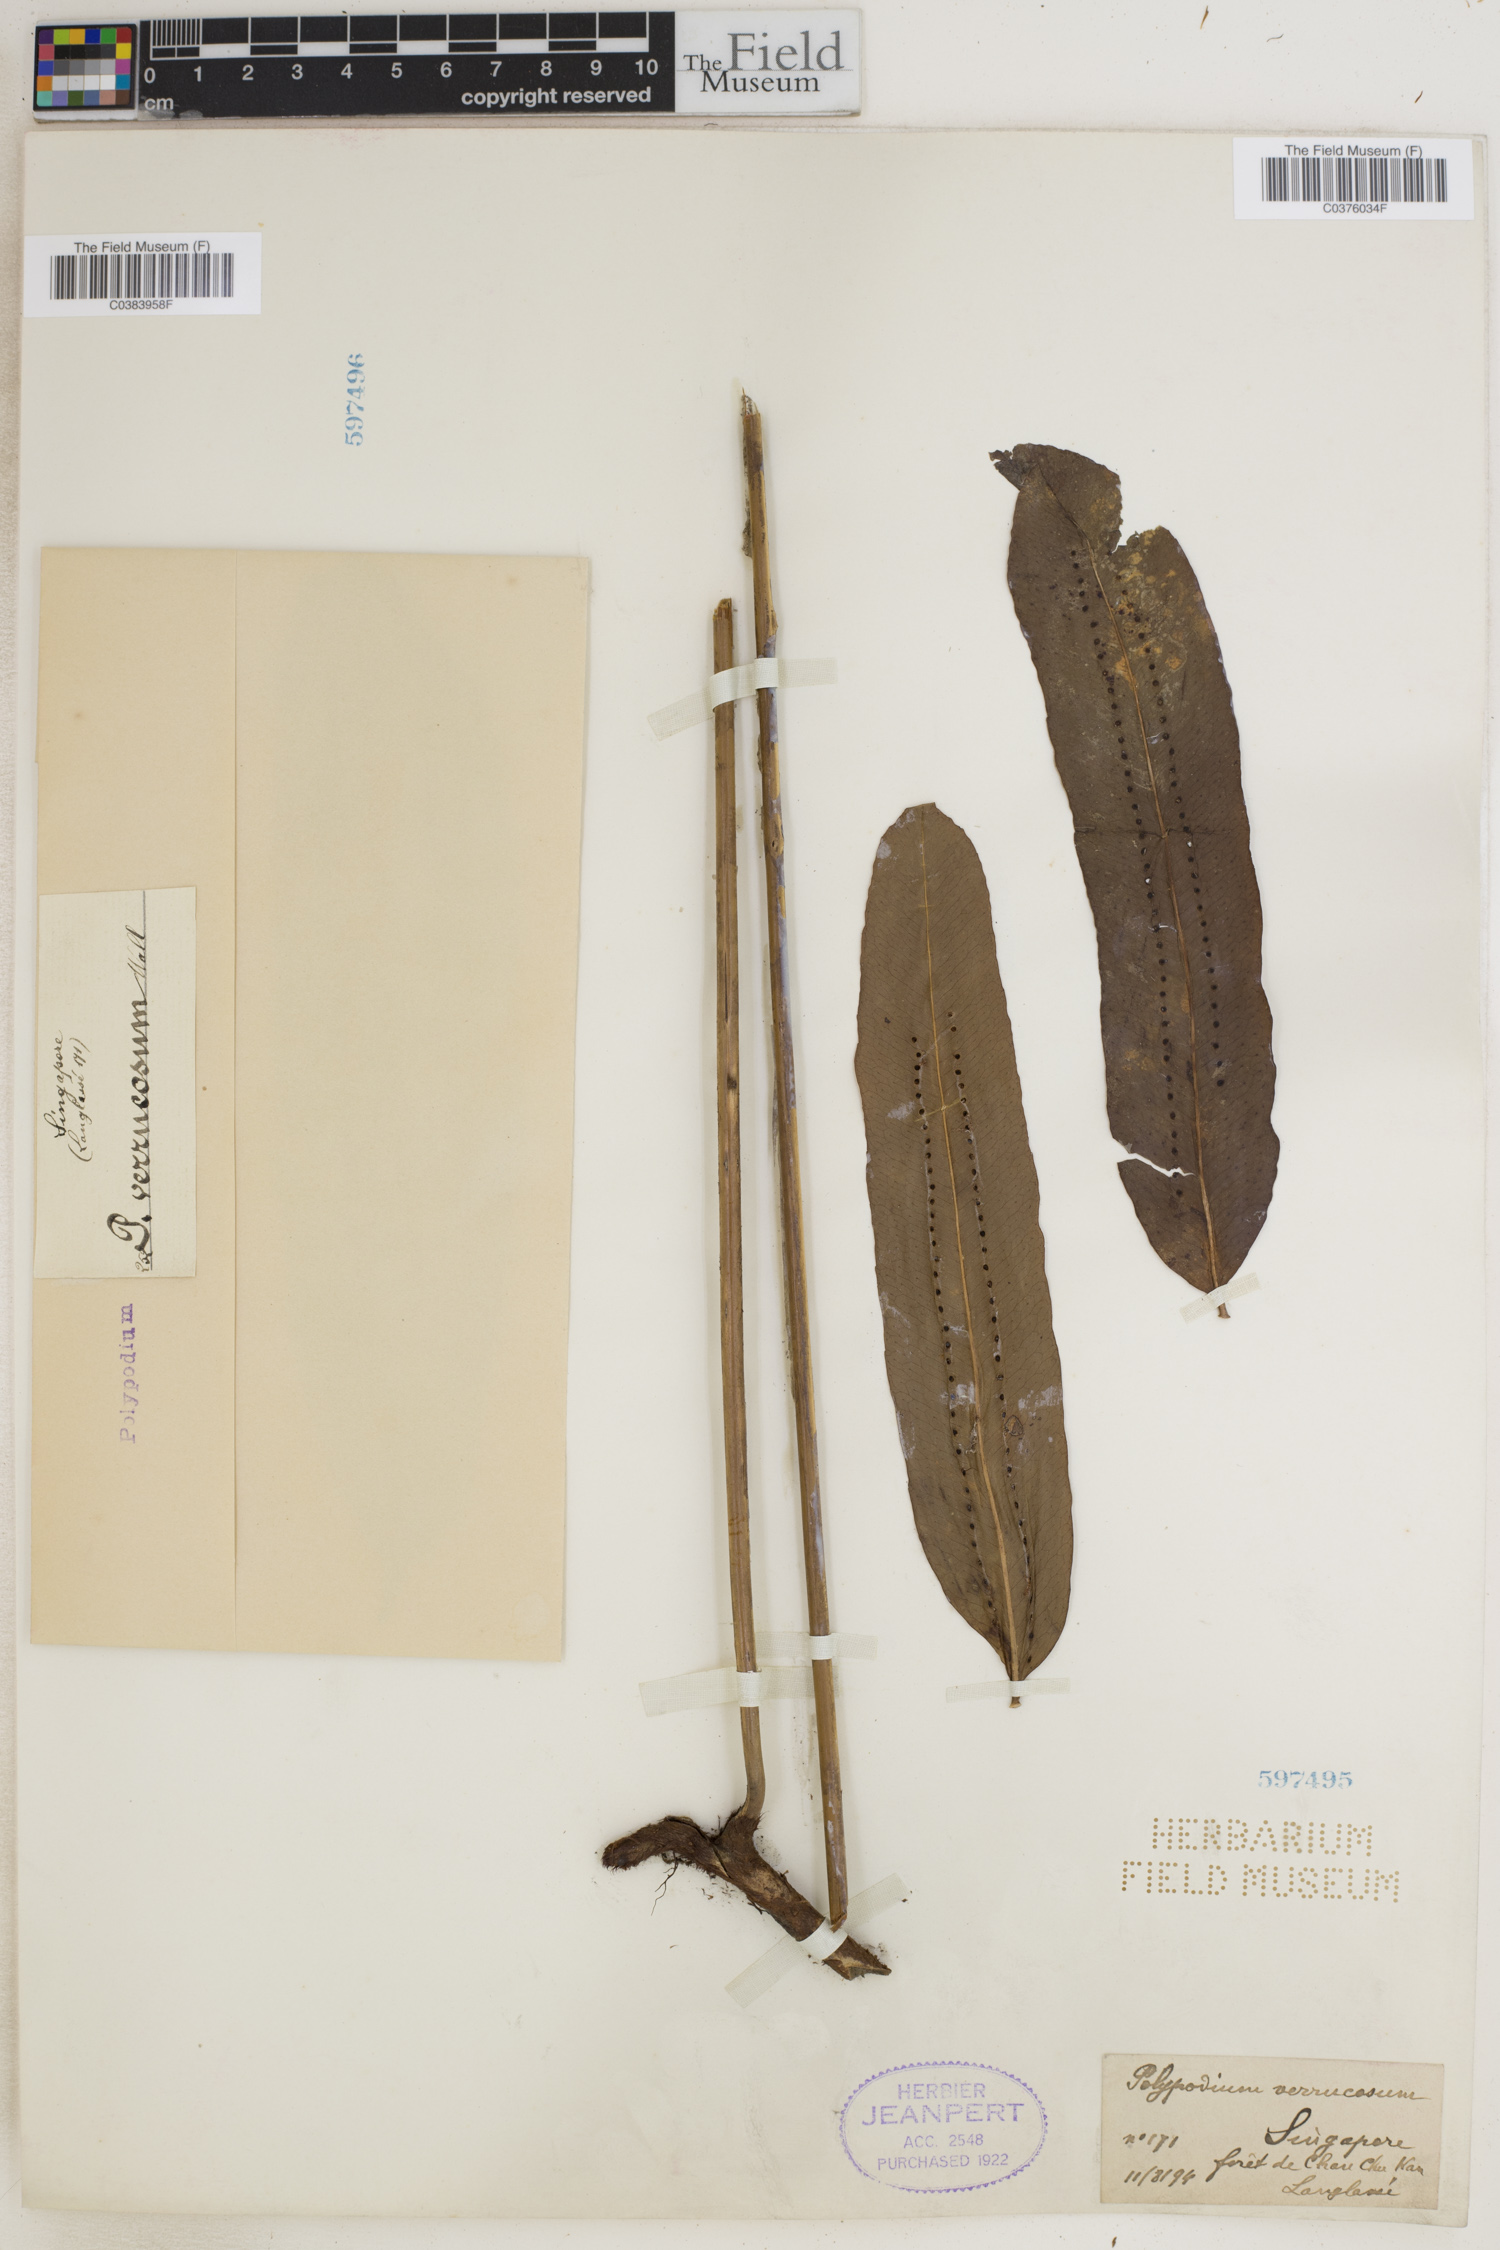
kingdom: Plantae
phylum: Tracheophyta
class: Polypodiopsida
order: Polypodiales
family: Polypodiaceae
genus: Goniophlebium
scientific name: Goniophlebium percussum
